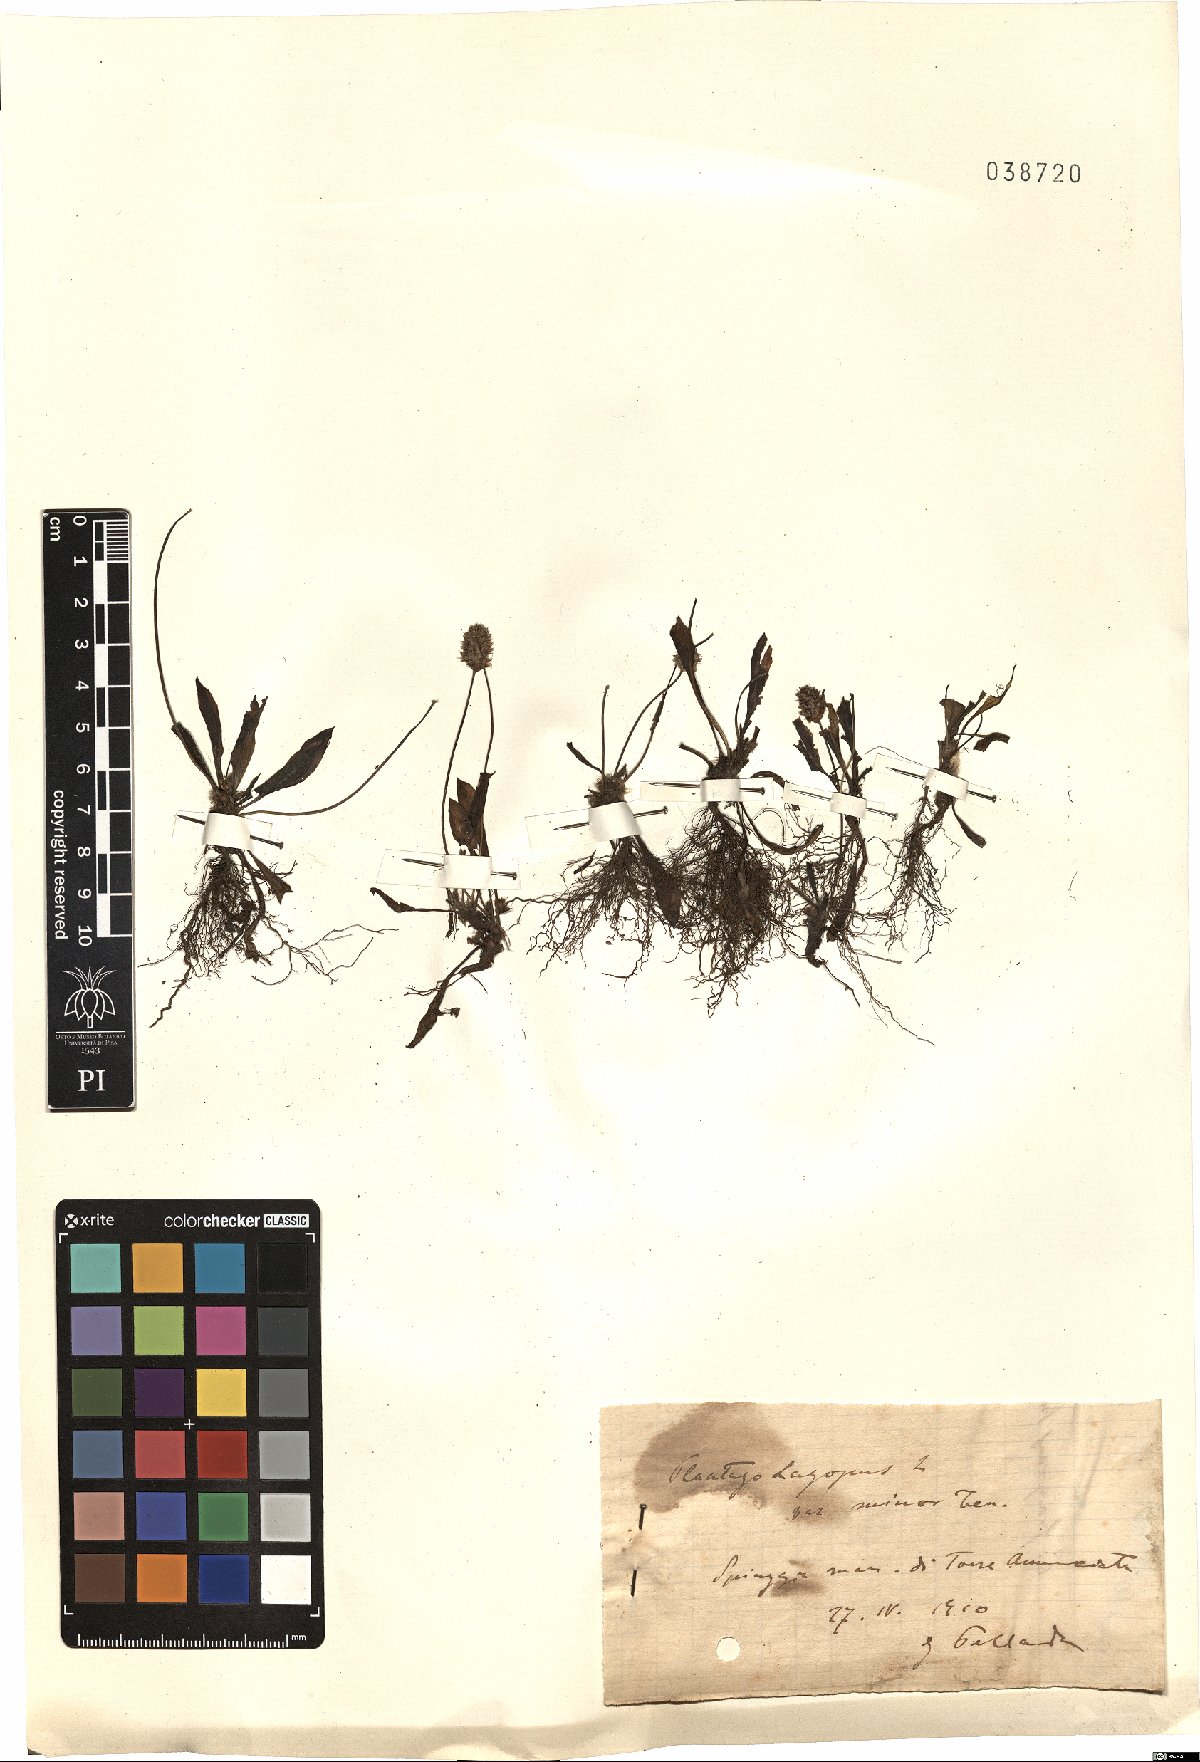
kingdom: Plantae
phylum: Tracheophyta
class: Magnoliopsida
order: Lamiales
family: Plantaginaceae
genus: Plantago
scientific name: Plantago lagopus
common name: Hare-foot plantain
